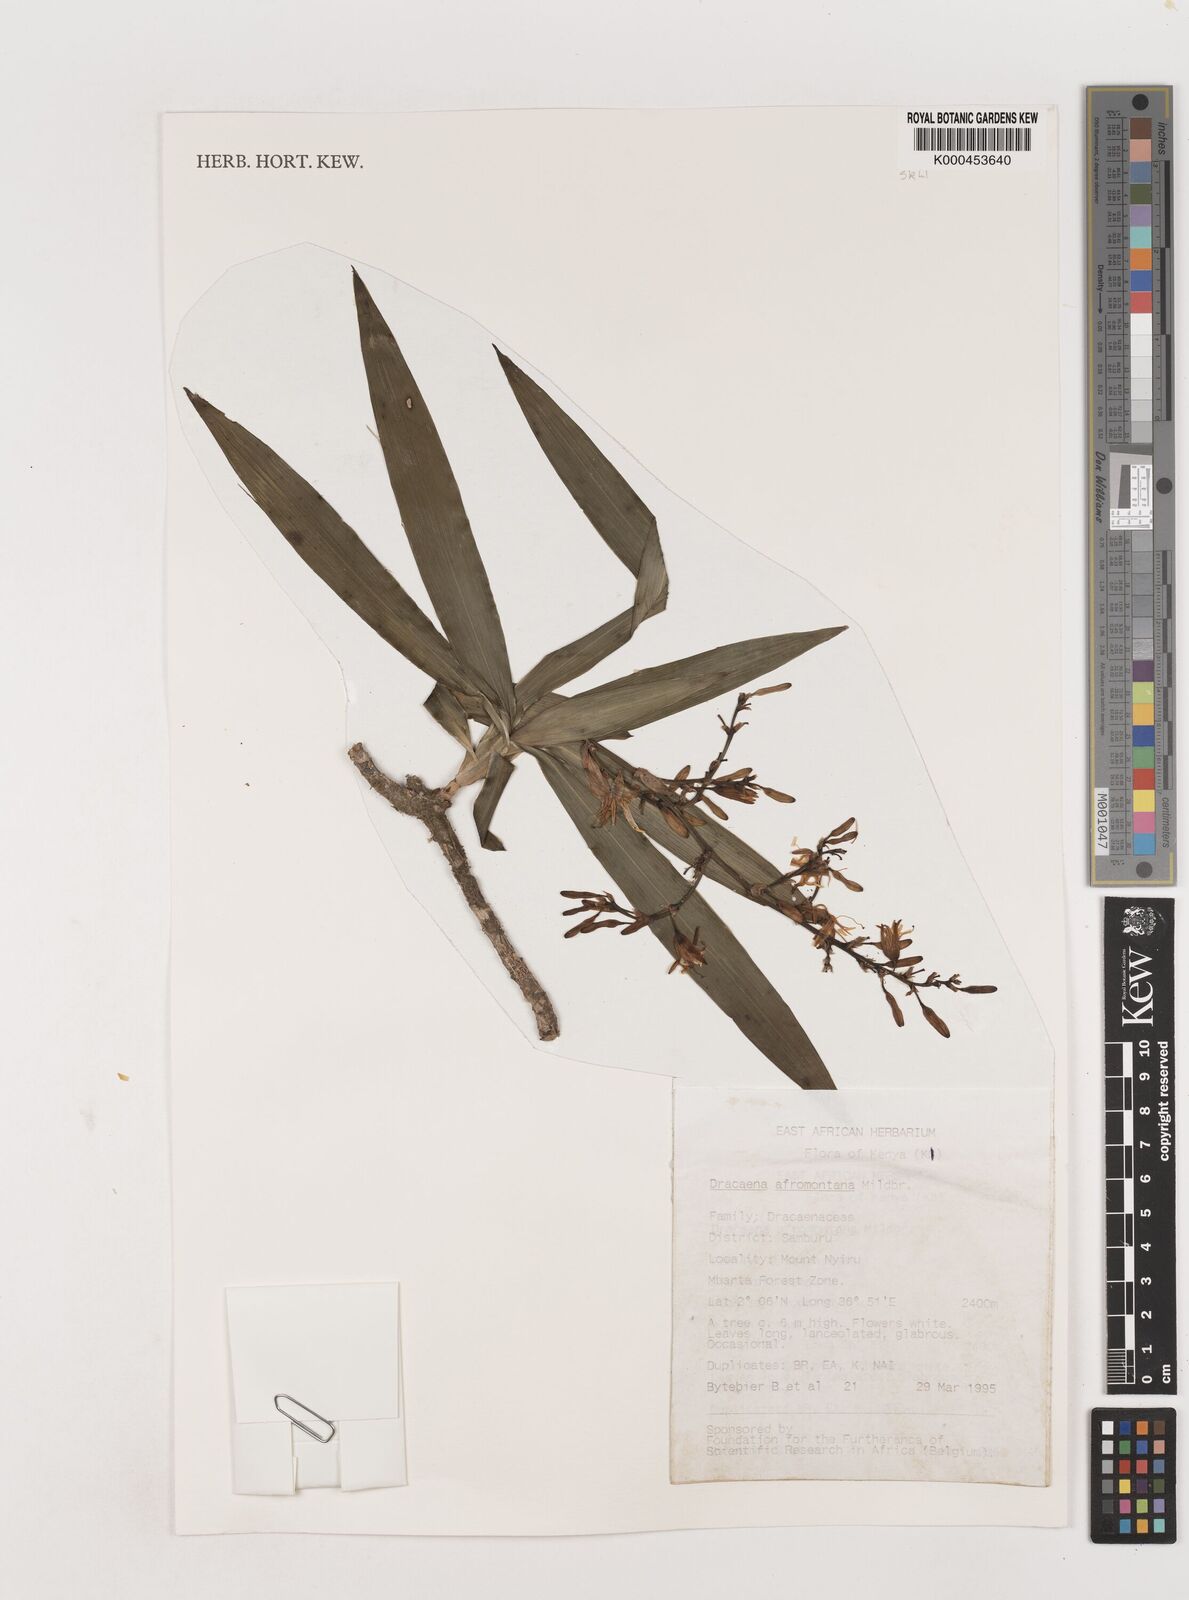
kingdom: Plantae
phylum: Tracheophyta
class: Liliopsida
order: Asparagales
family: Asparagaceae
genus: Dracaena
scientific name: Dracaena afromontana
